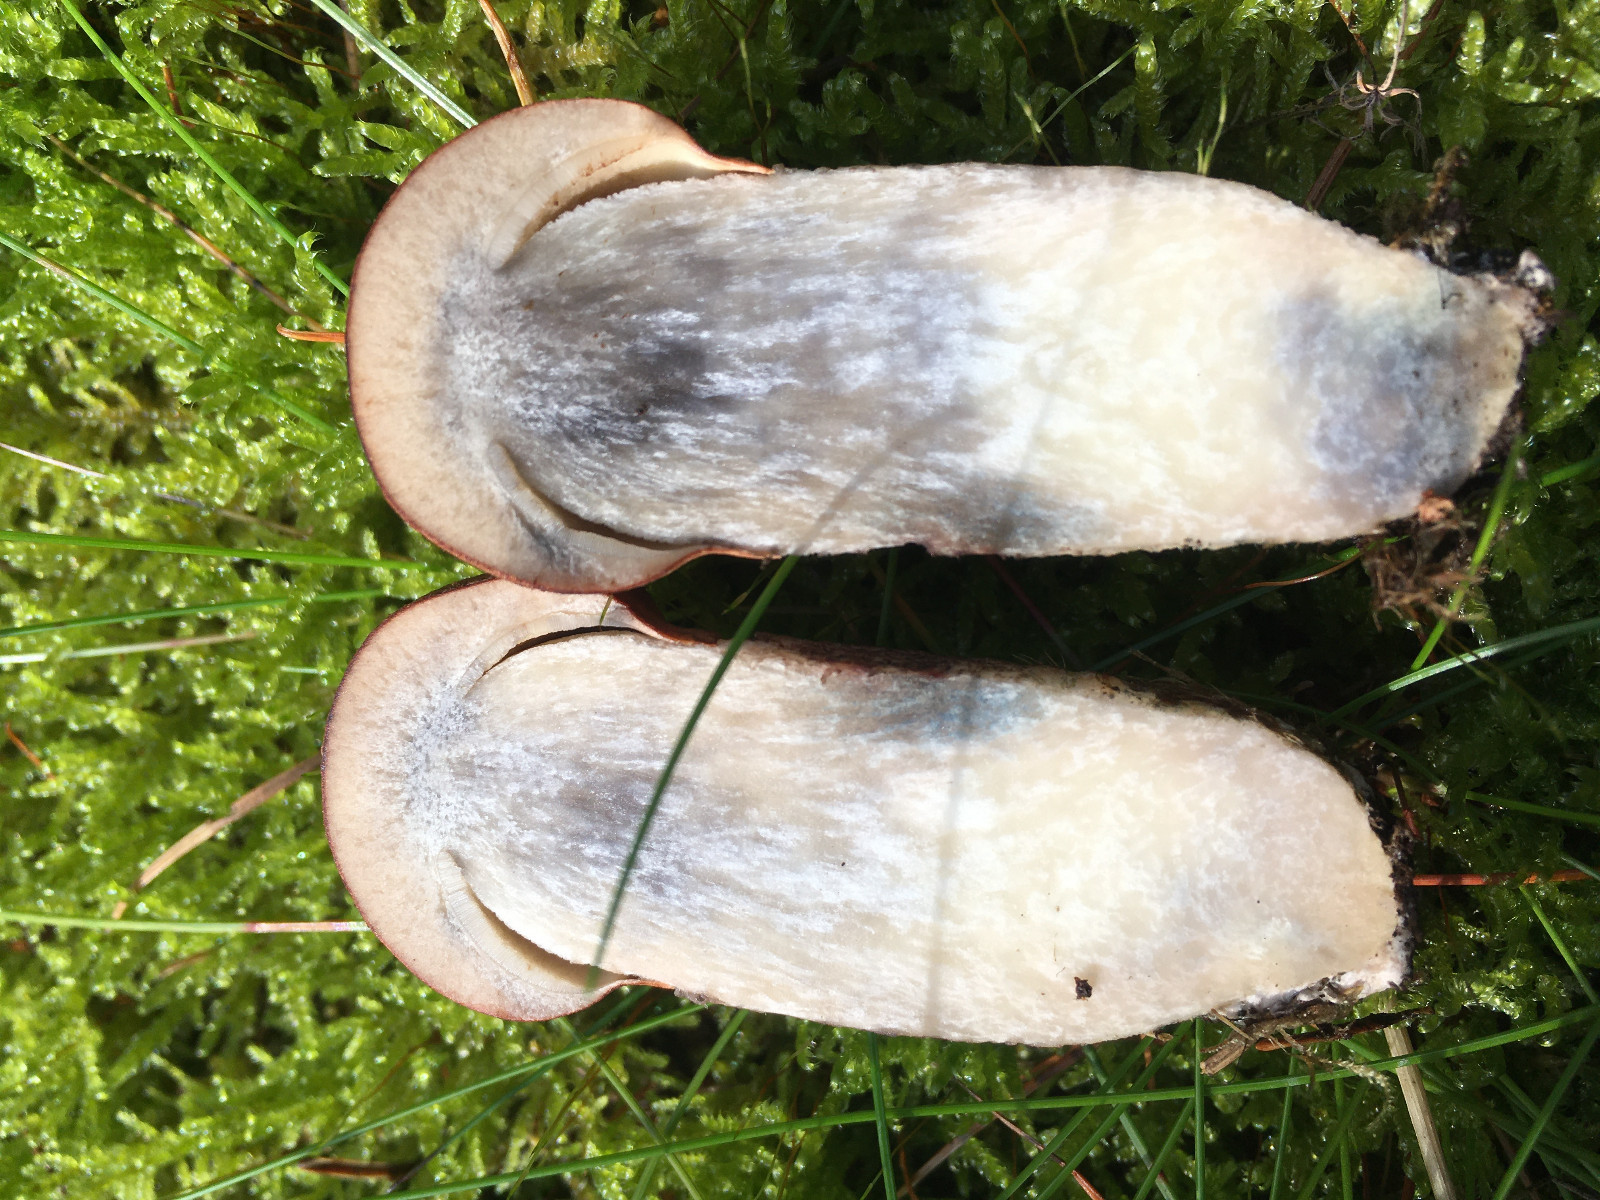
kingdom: Fungi
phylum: Basidiomycota
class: Agaricomycetes
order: Boletales
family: Boletaceae
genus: Leccinum
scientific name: Leccinum vulpinum
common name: fyrre-skælrørhat
